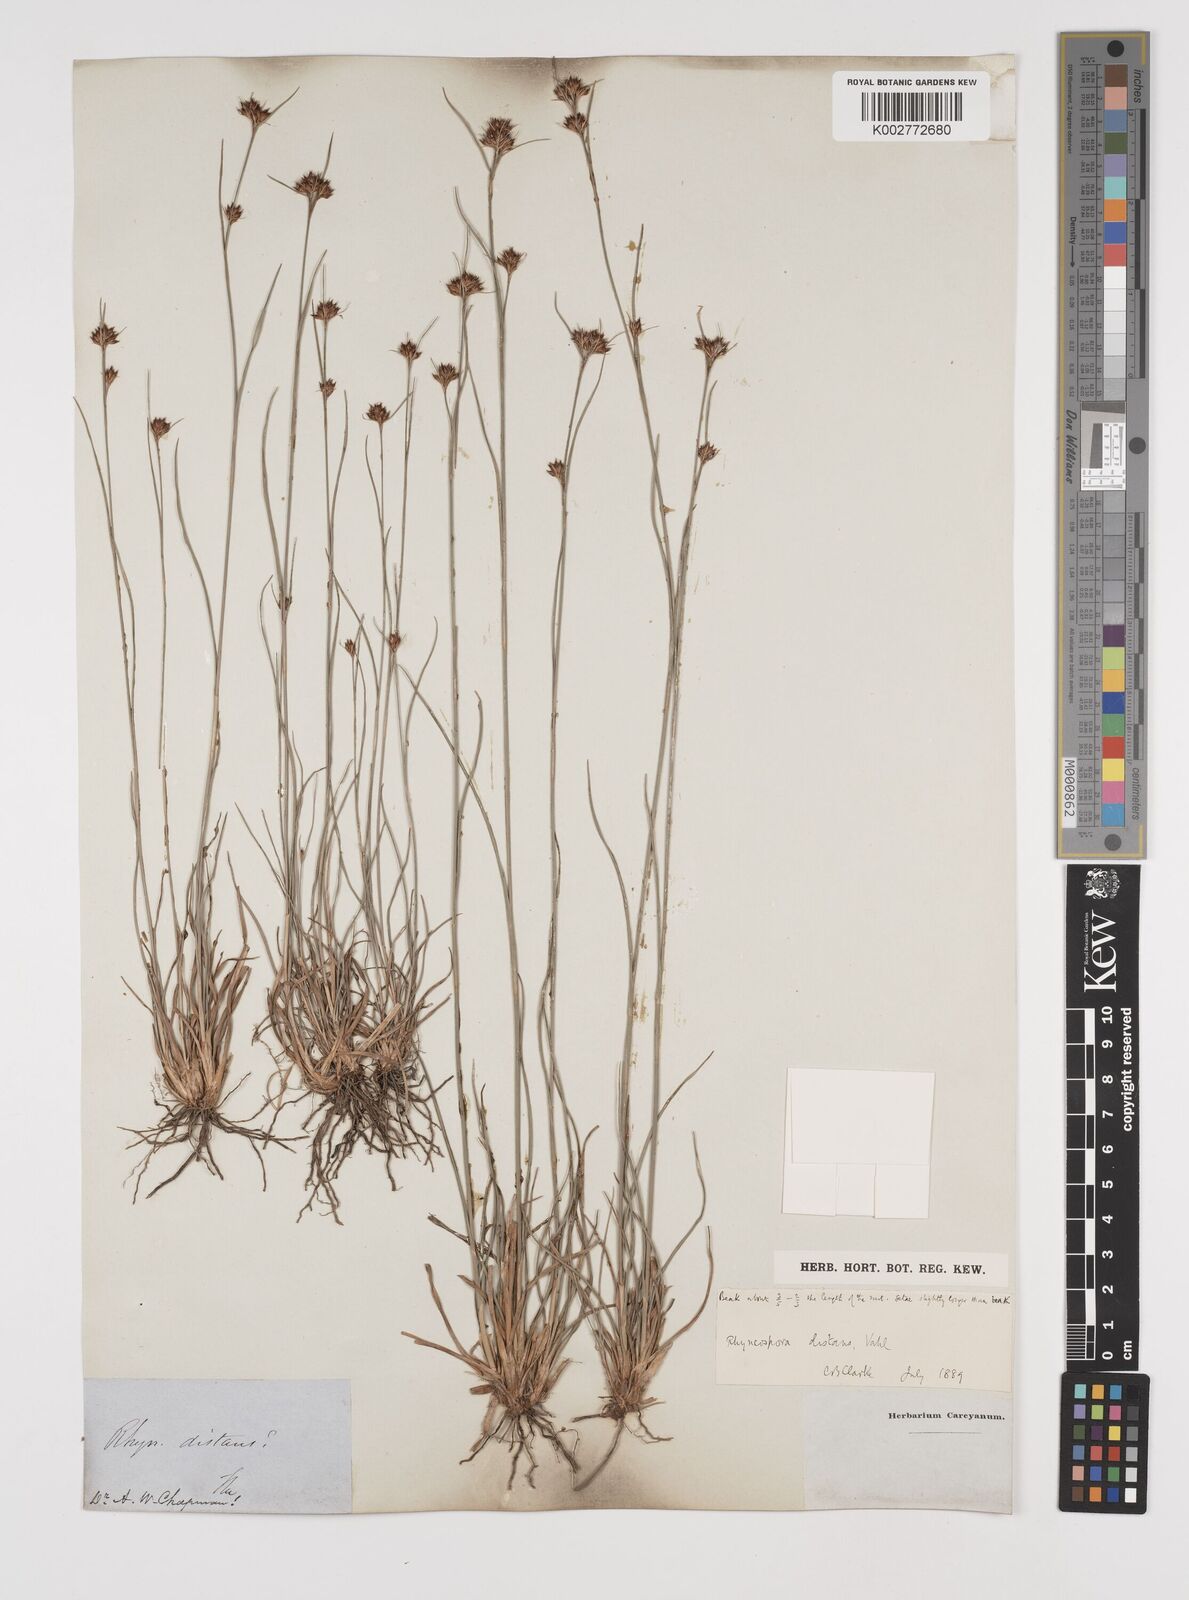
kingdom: Plantae
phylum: Tracheophyta
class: Liliopsida
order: Poales
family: Cyperaceae
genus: Rhynchospora
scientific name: Rhynchospora fascicularis
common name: Fascicled beak sedge
